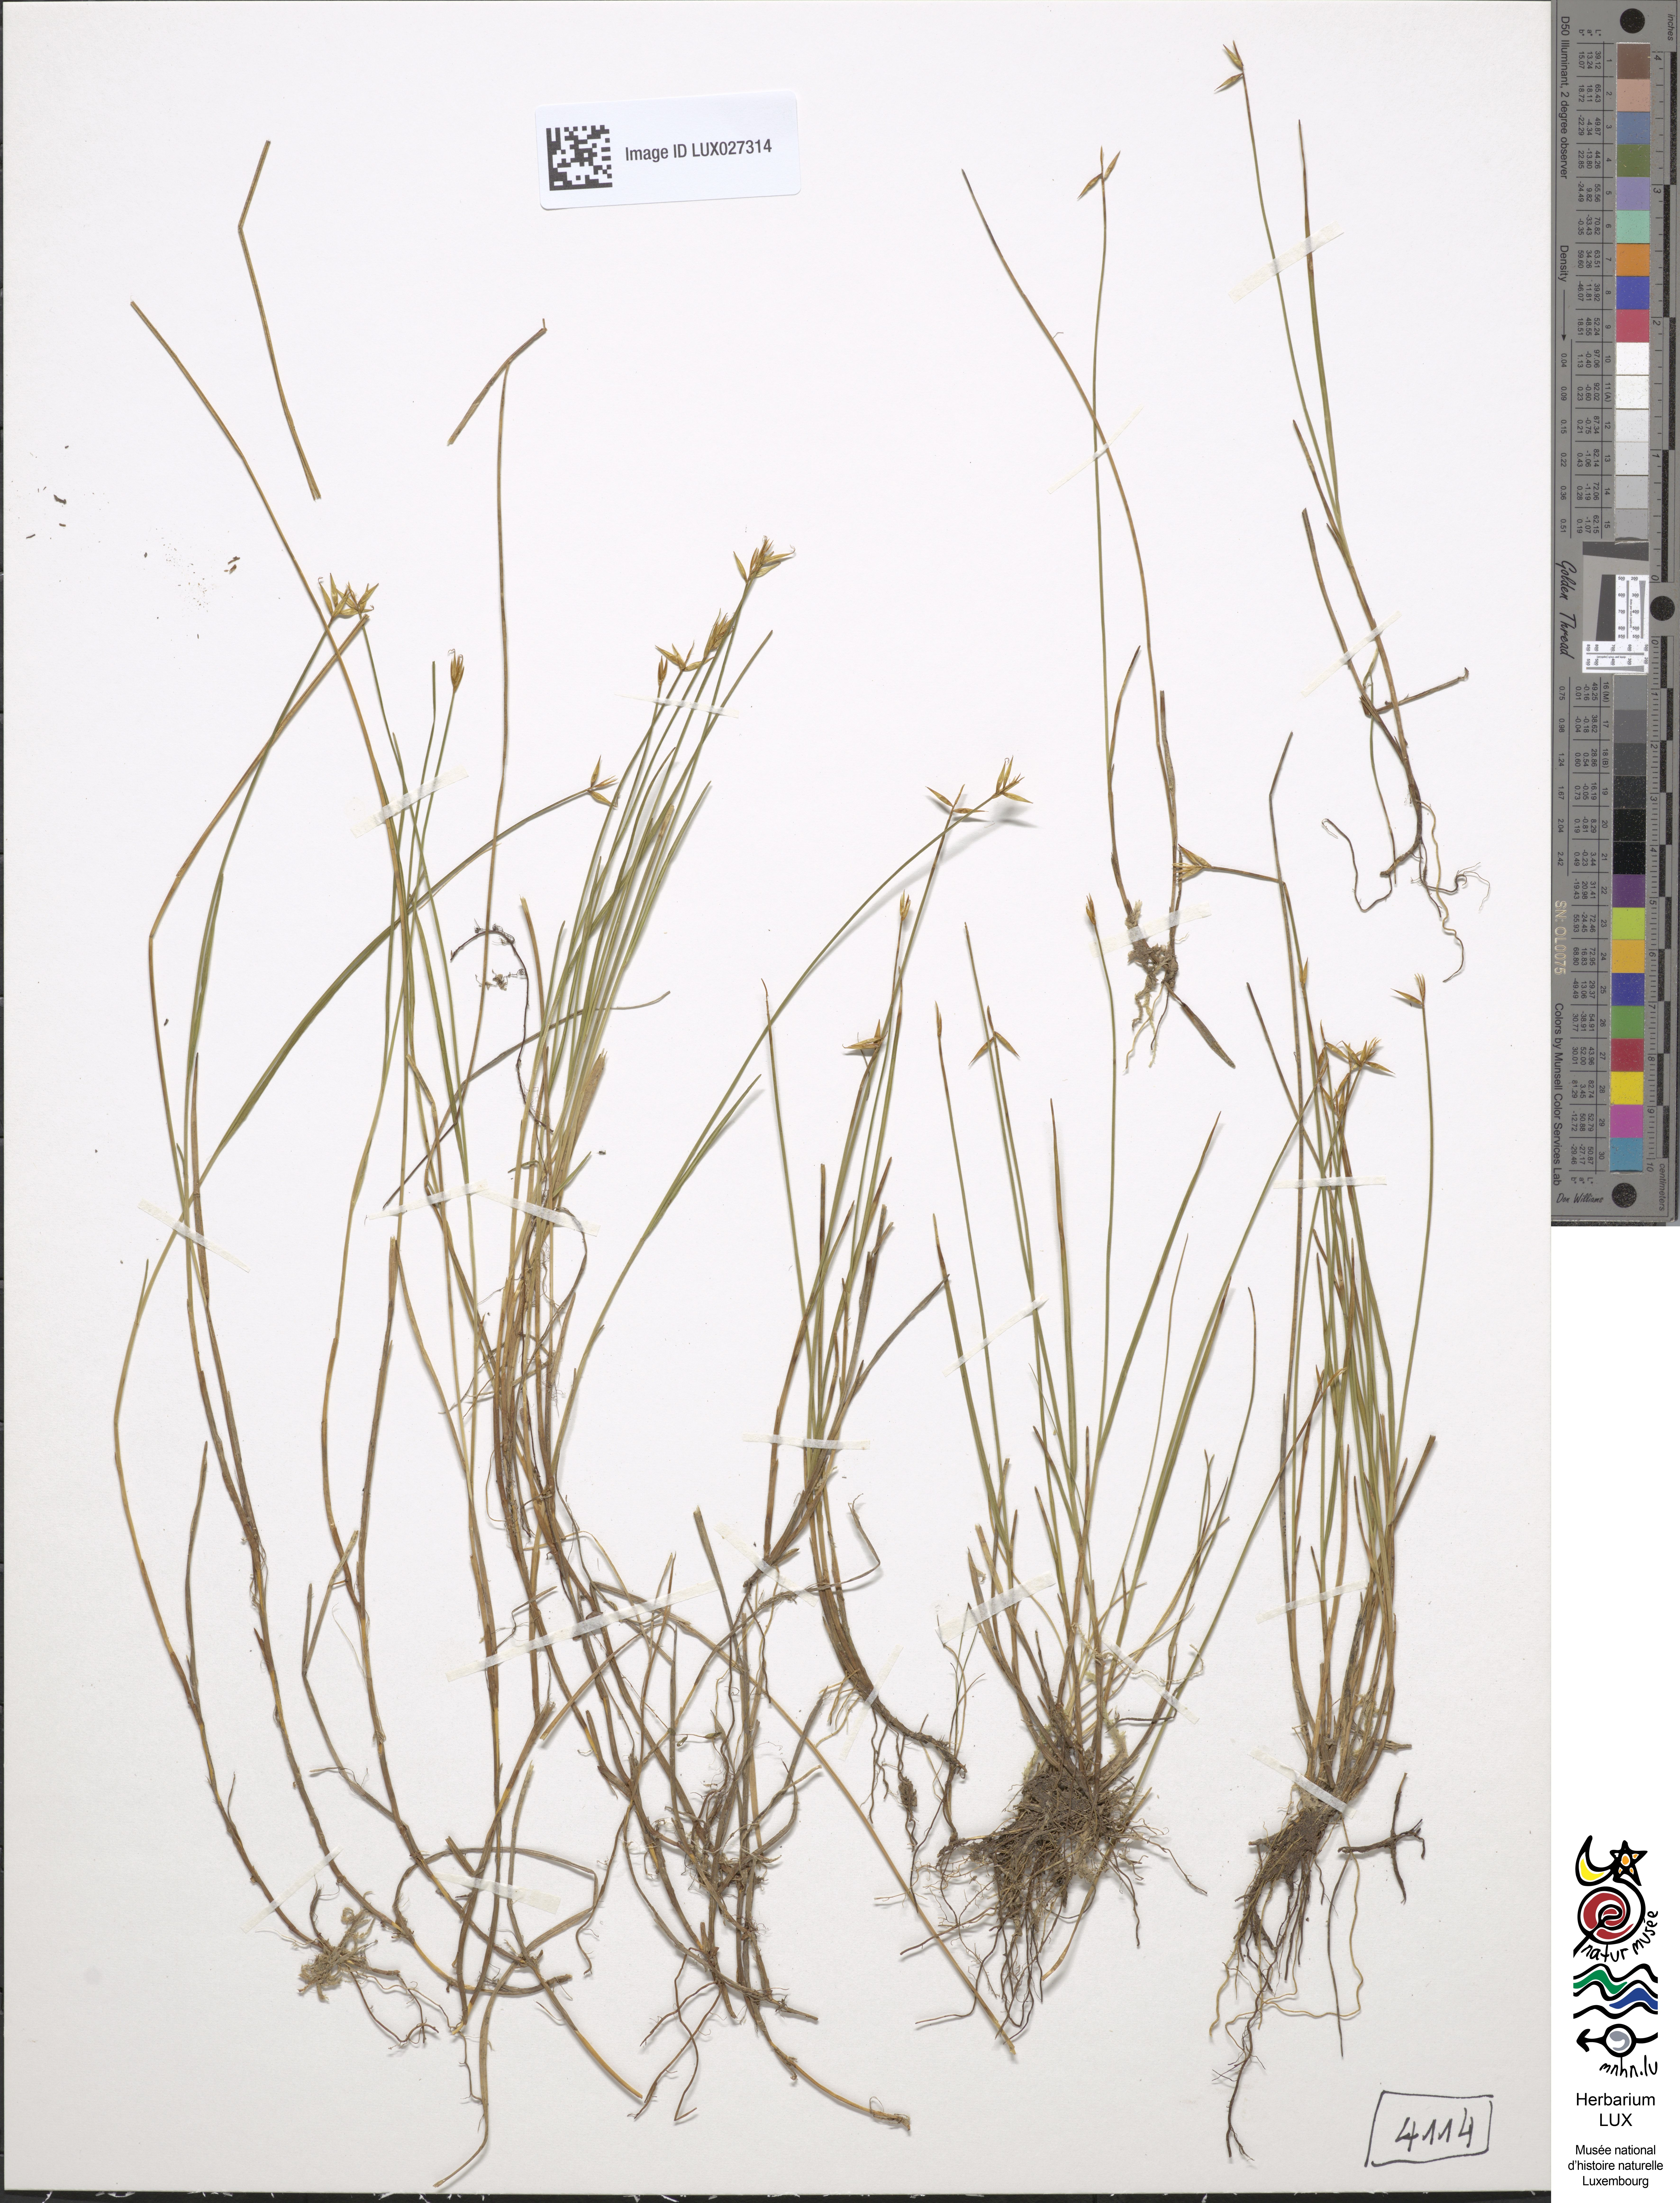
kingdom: Plantae
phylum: Tracheophyta
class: Liliopsida
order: Poales
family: Cyperaceae
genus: Carex
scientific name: Carex pauciflora
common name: Few-flowered sedge
